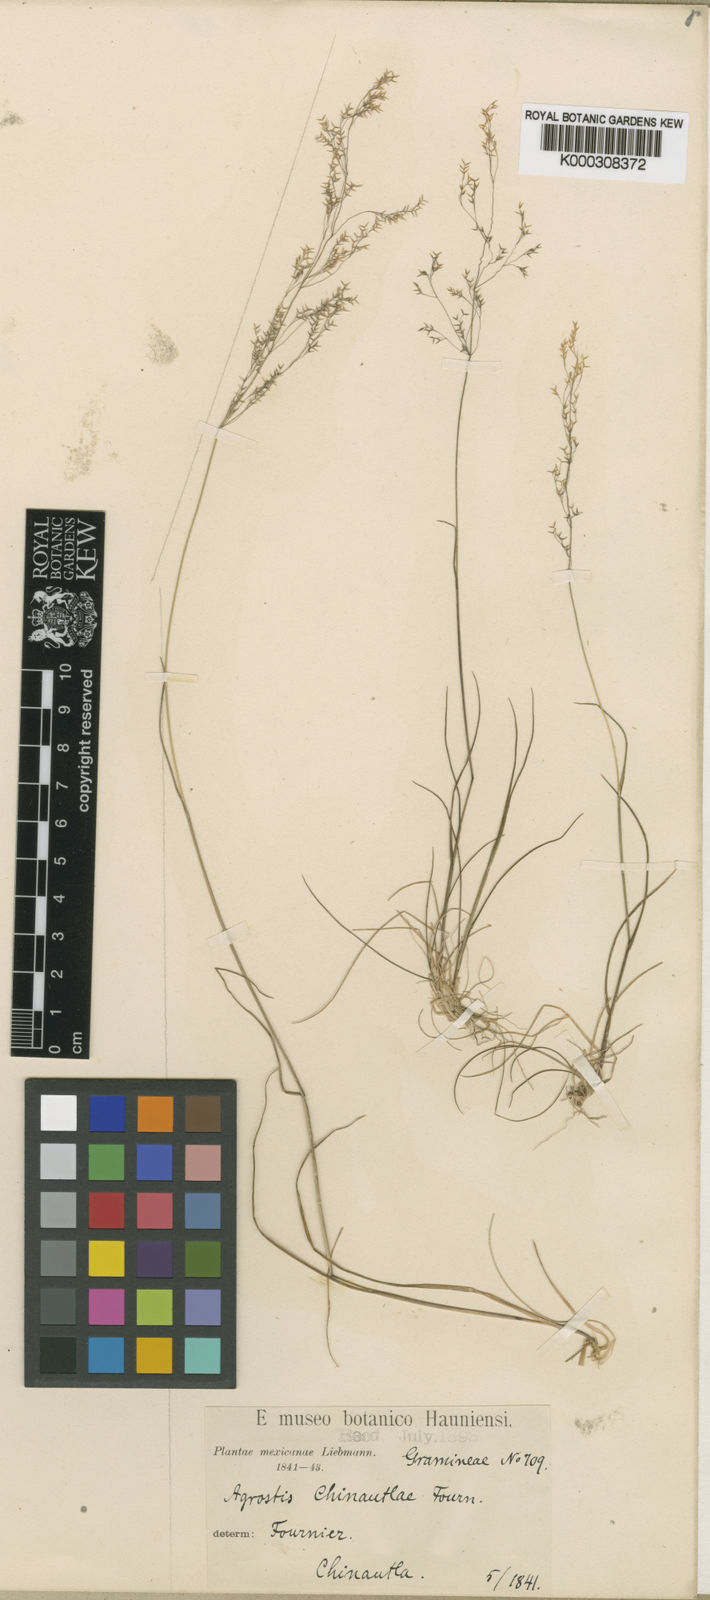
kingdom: Plantae
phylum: Tracheophyta
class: Liliopsida
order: Poales
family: Poaceae
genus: Agrostis
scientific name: Agrostis perennans
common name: Autumn bent
